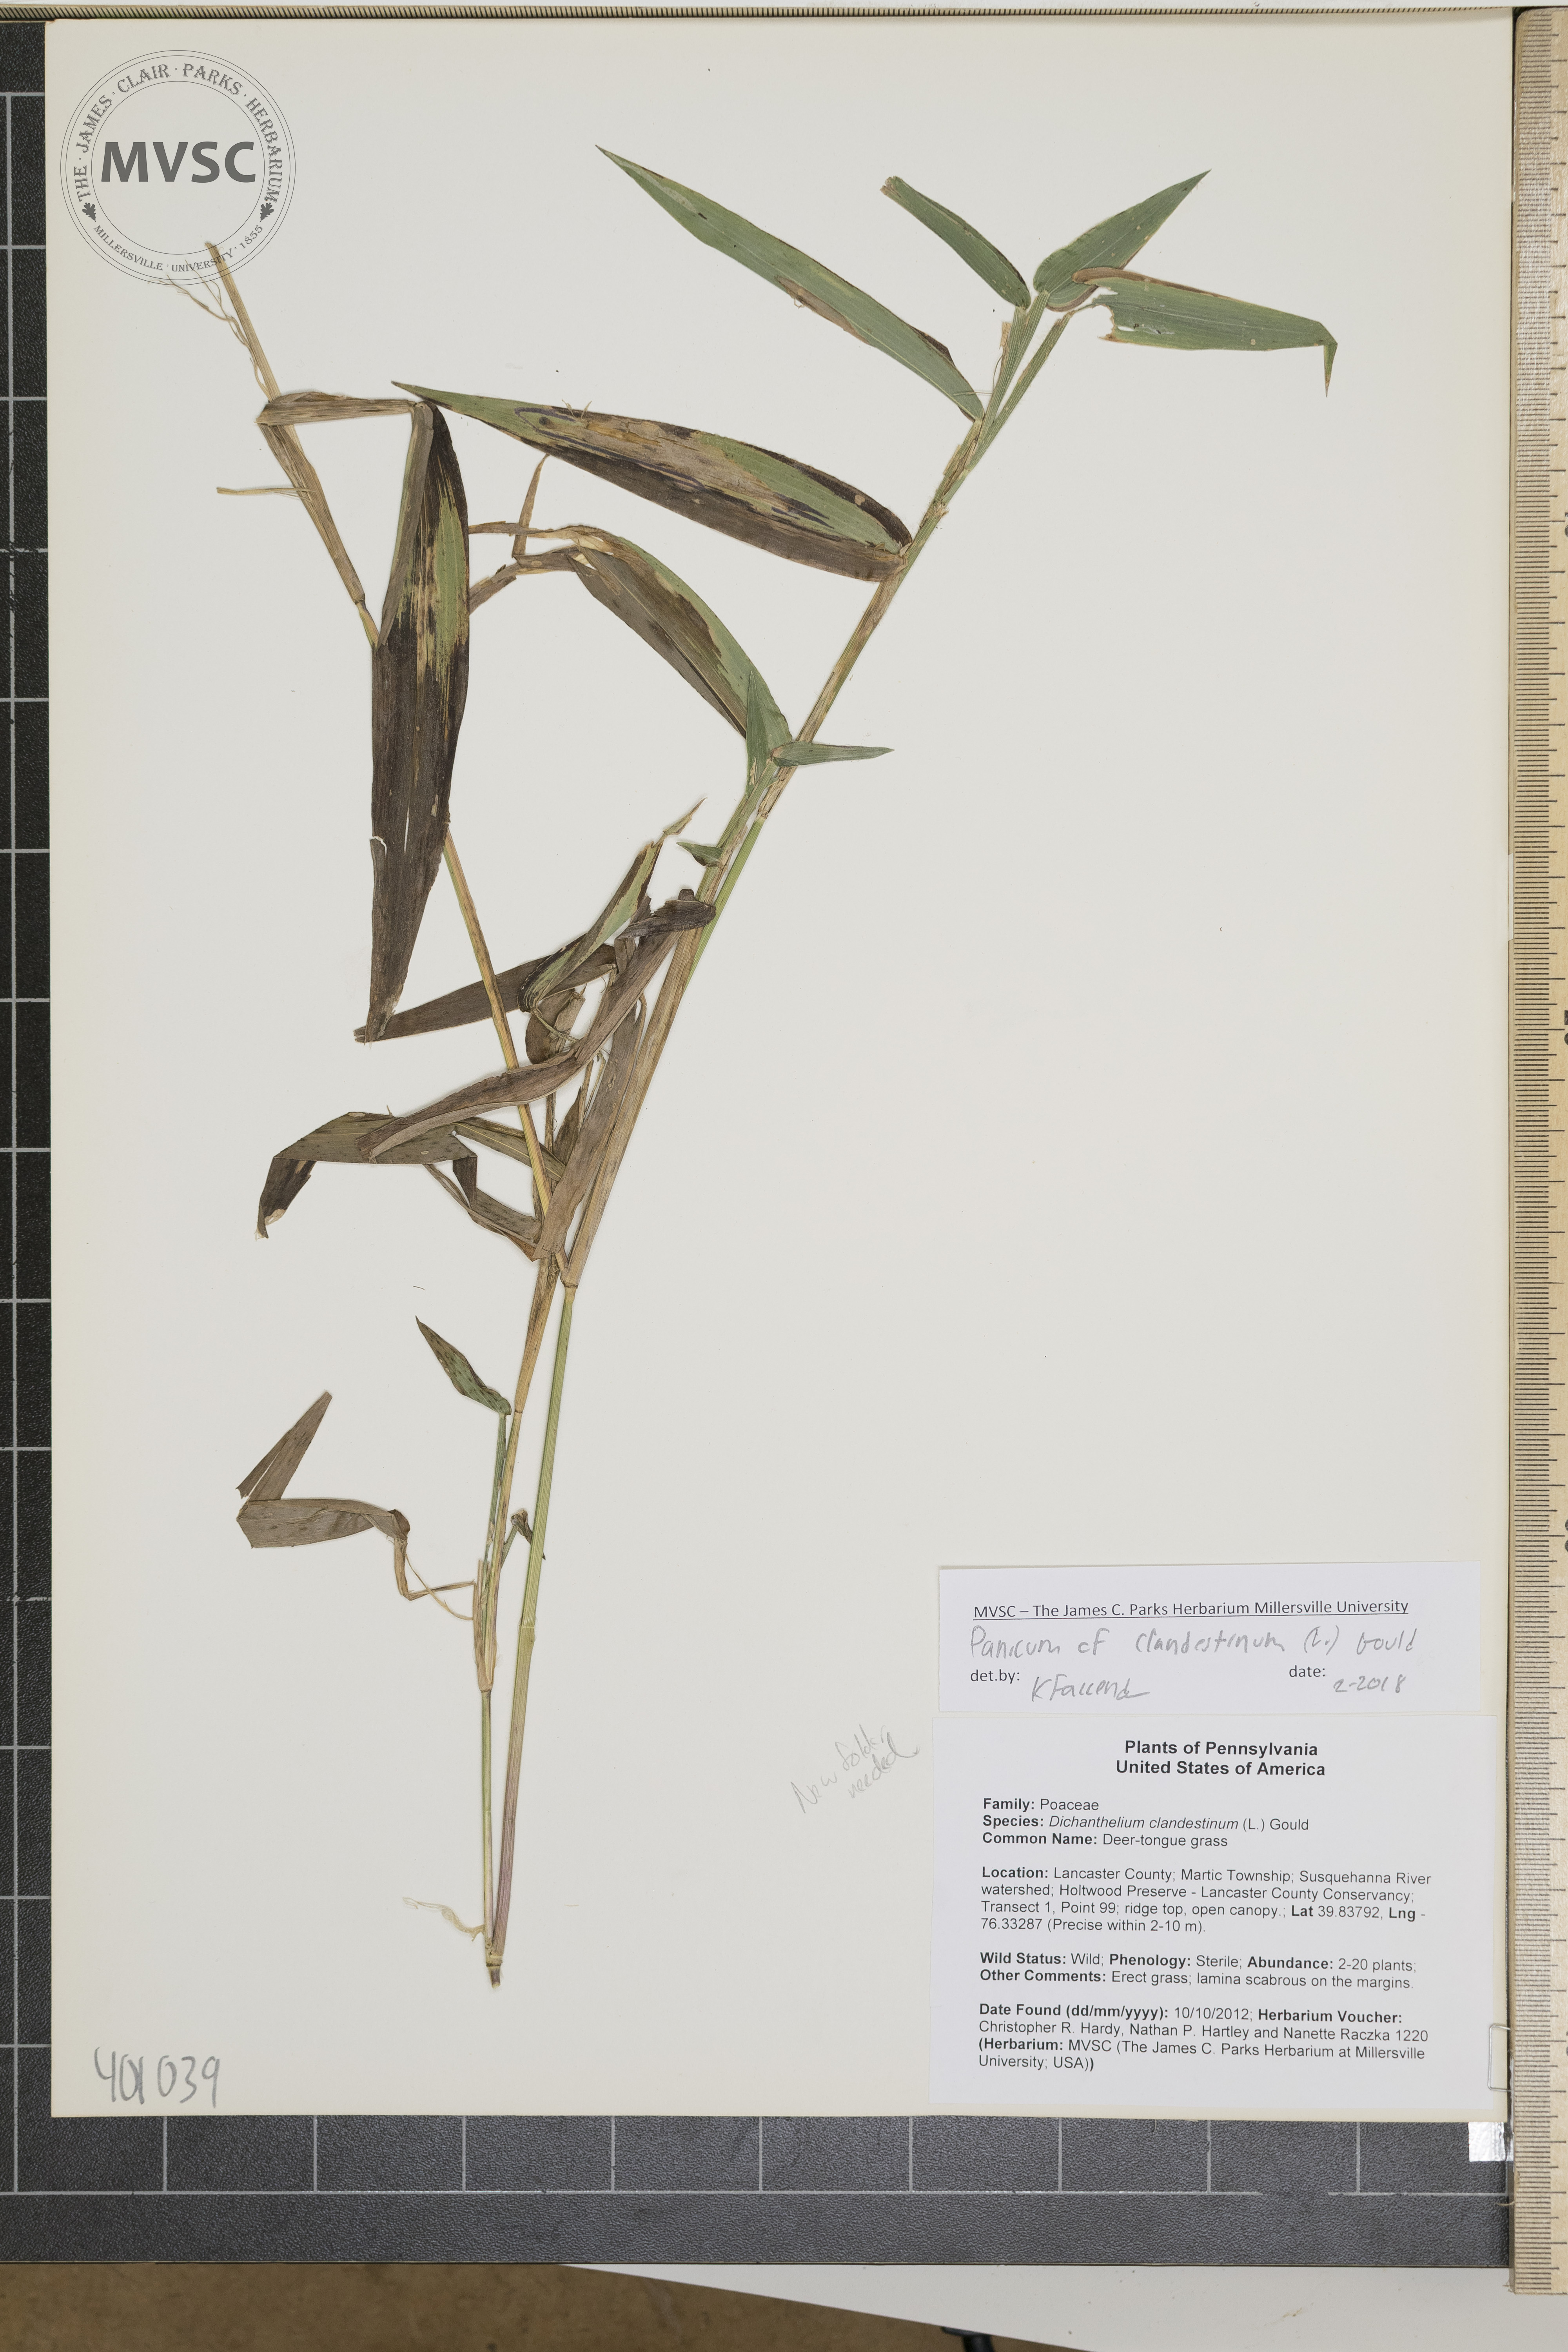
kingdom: Plantae
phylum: Tracheophyta
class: Liliopsida
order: Poales
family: Poaceae
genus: Dichanthelium
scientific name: Dichanthelium clandestinum
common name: Deer-tongue grass
